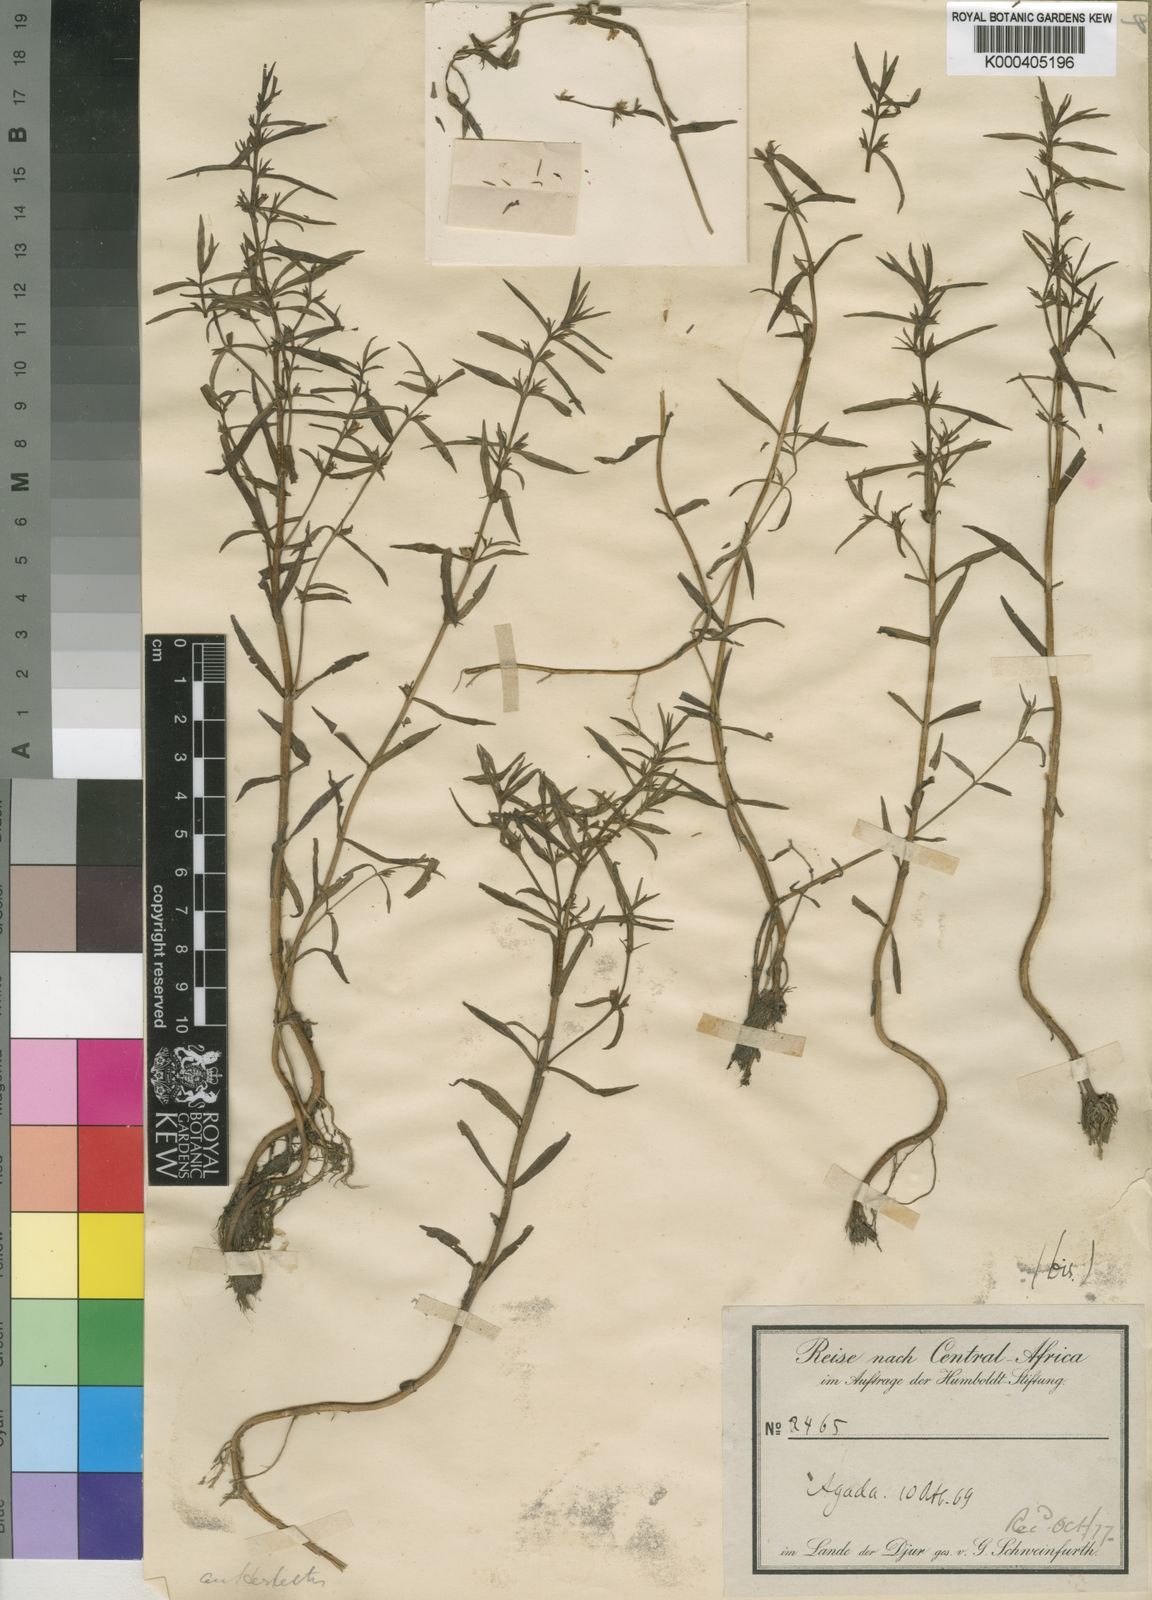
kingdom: Plantae
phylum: Tracheophyta
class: Magnoliopsida
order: Lamiales
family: Plantaginaceae
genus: Bacopa
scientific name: Bacopa punctata
